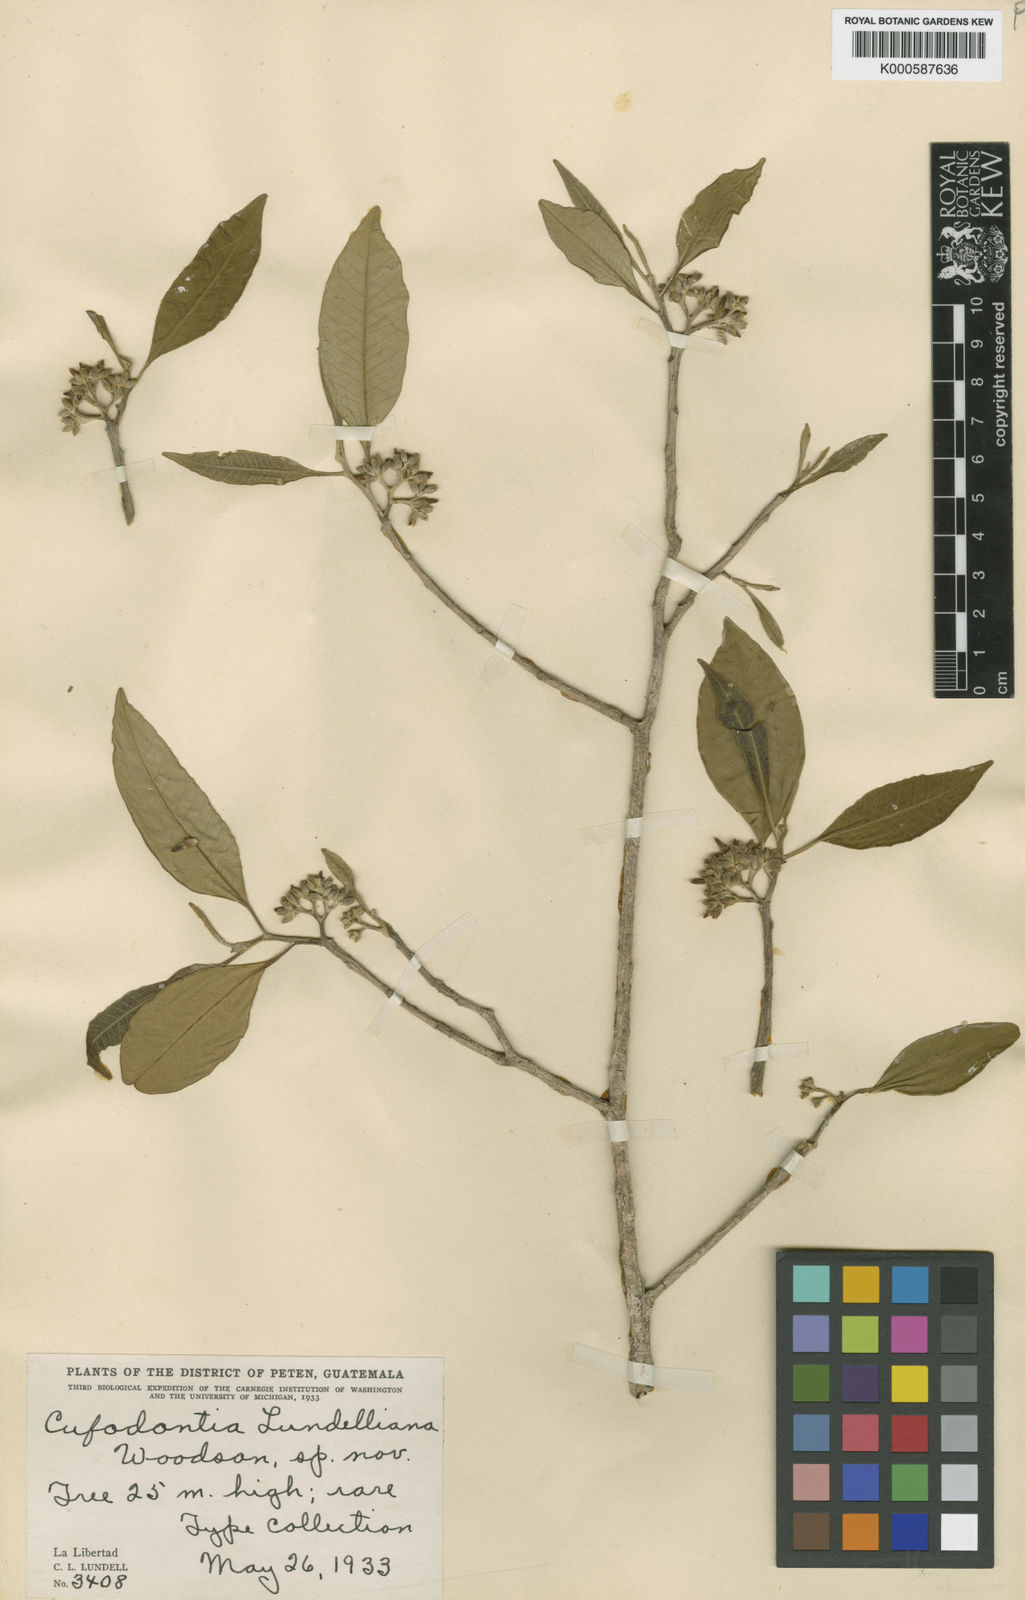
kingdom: Plantae
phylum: Tracheophyta
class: Magnoliopsida
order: Gentianales
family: Apocynaceae
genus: Aspidosperma
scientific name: Aspidosperma
